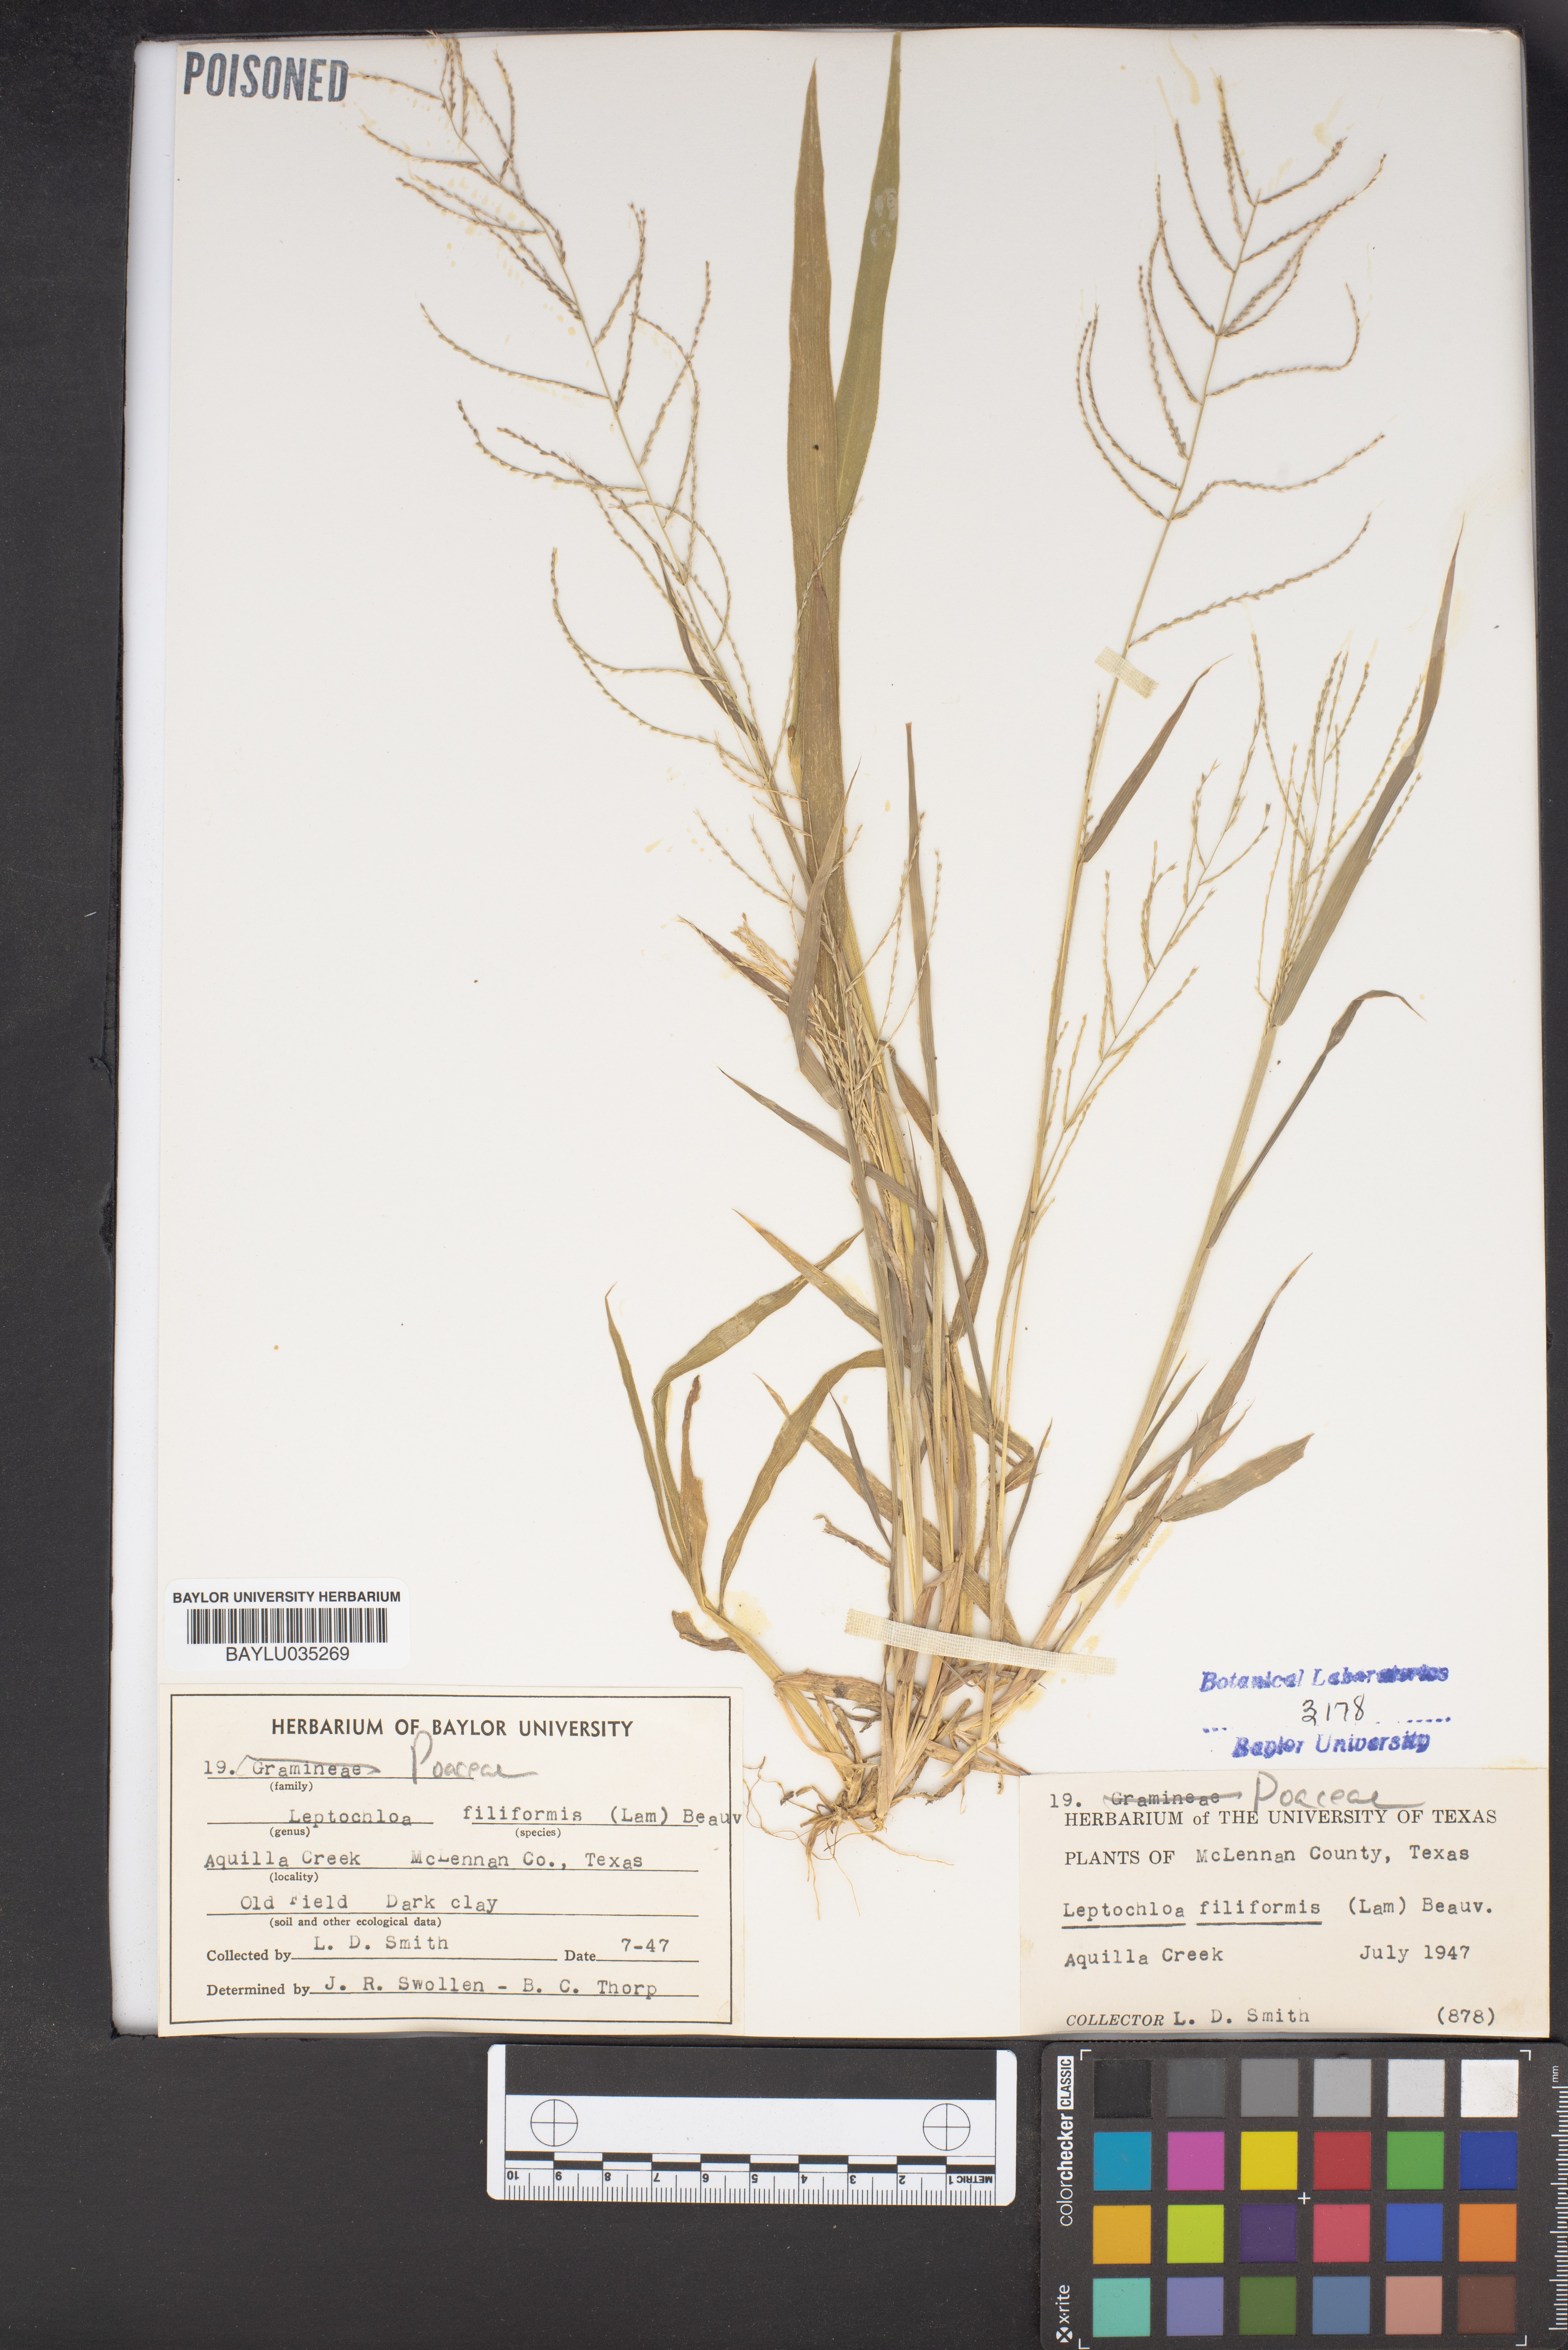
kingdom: Plantae
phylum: Tracheophyta
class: Liliopsida
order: Poales
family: Poaceae
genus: Leptochloa
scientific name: Leptochloa mucronata
